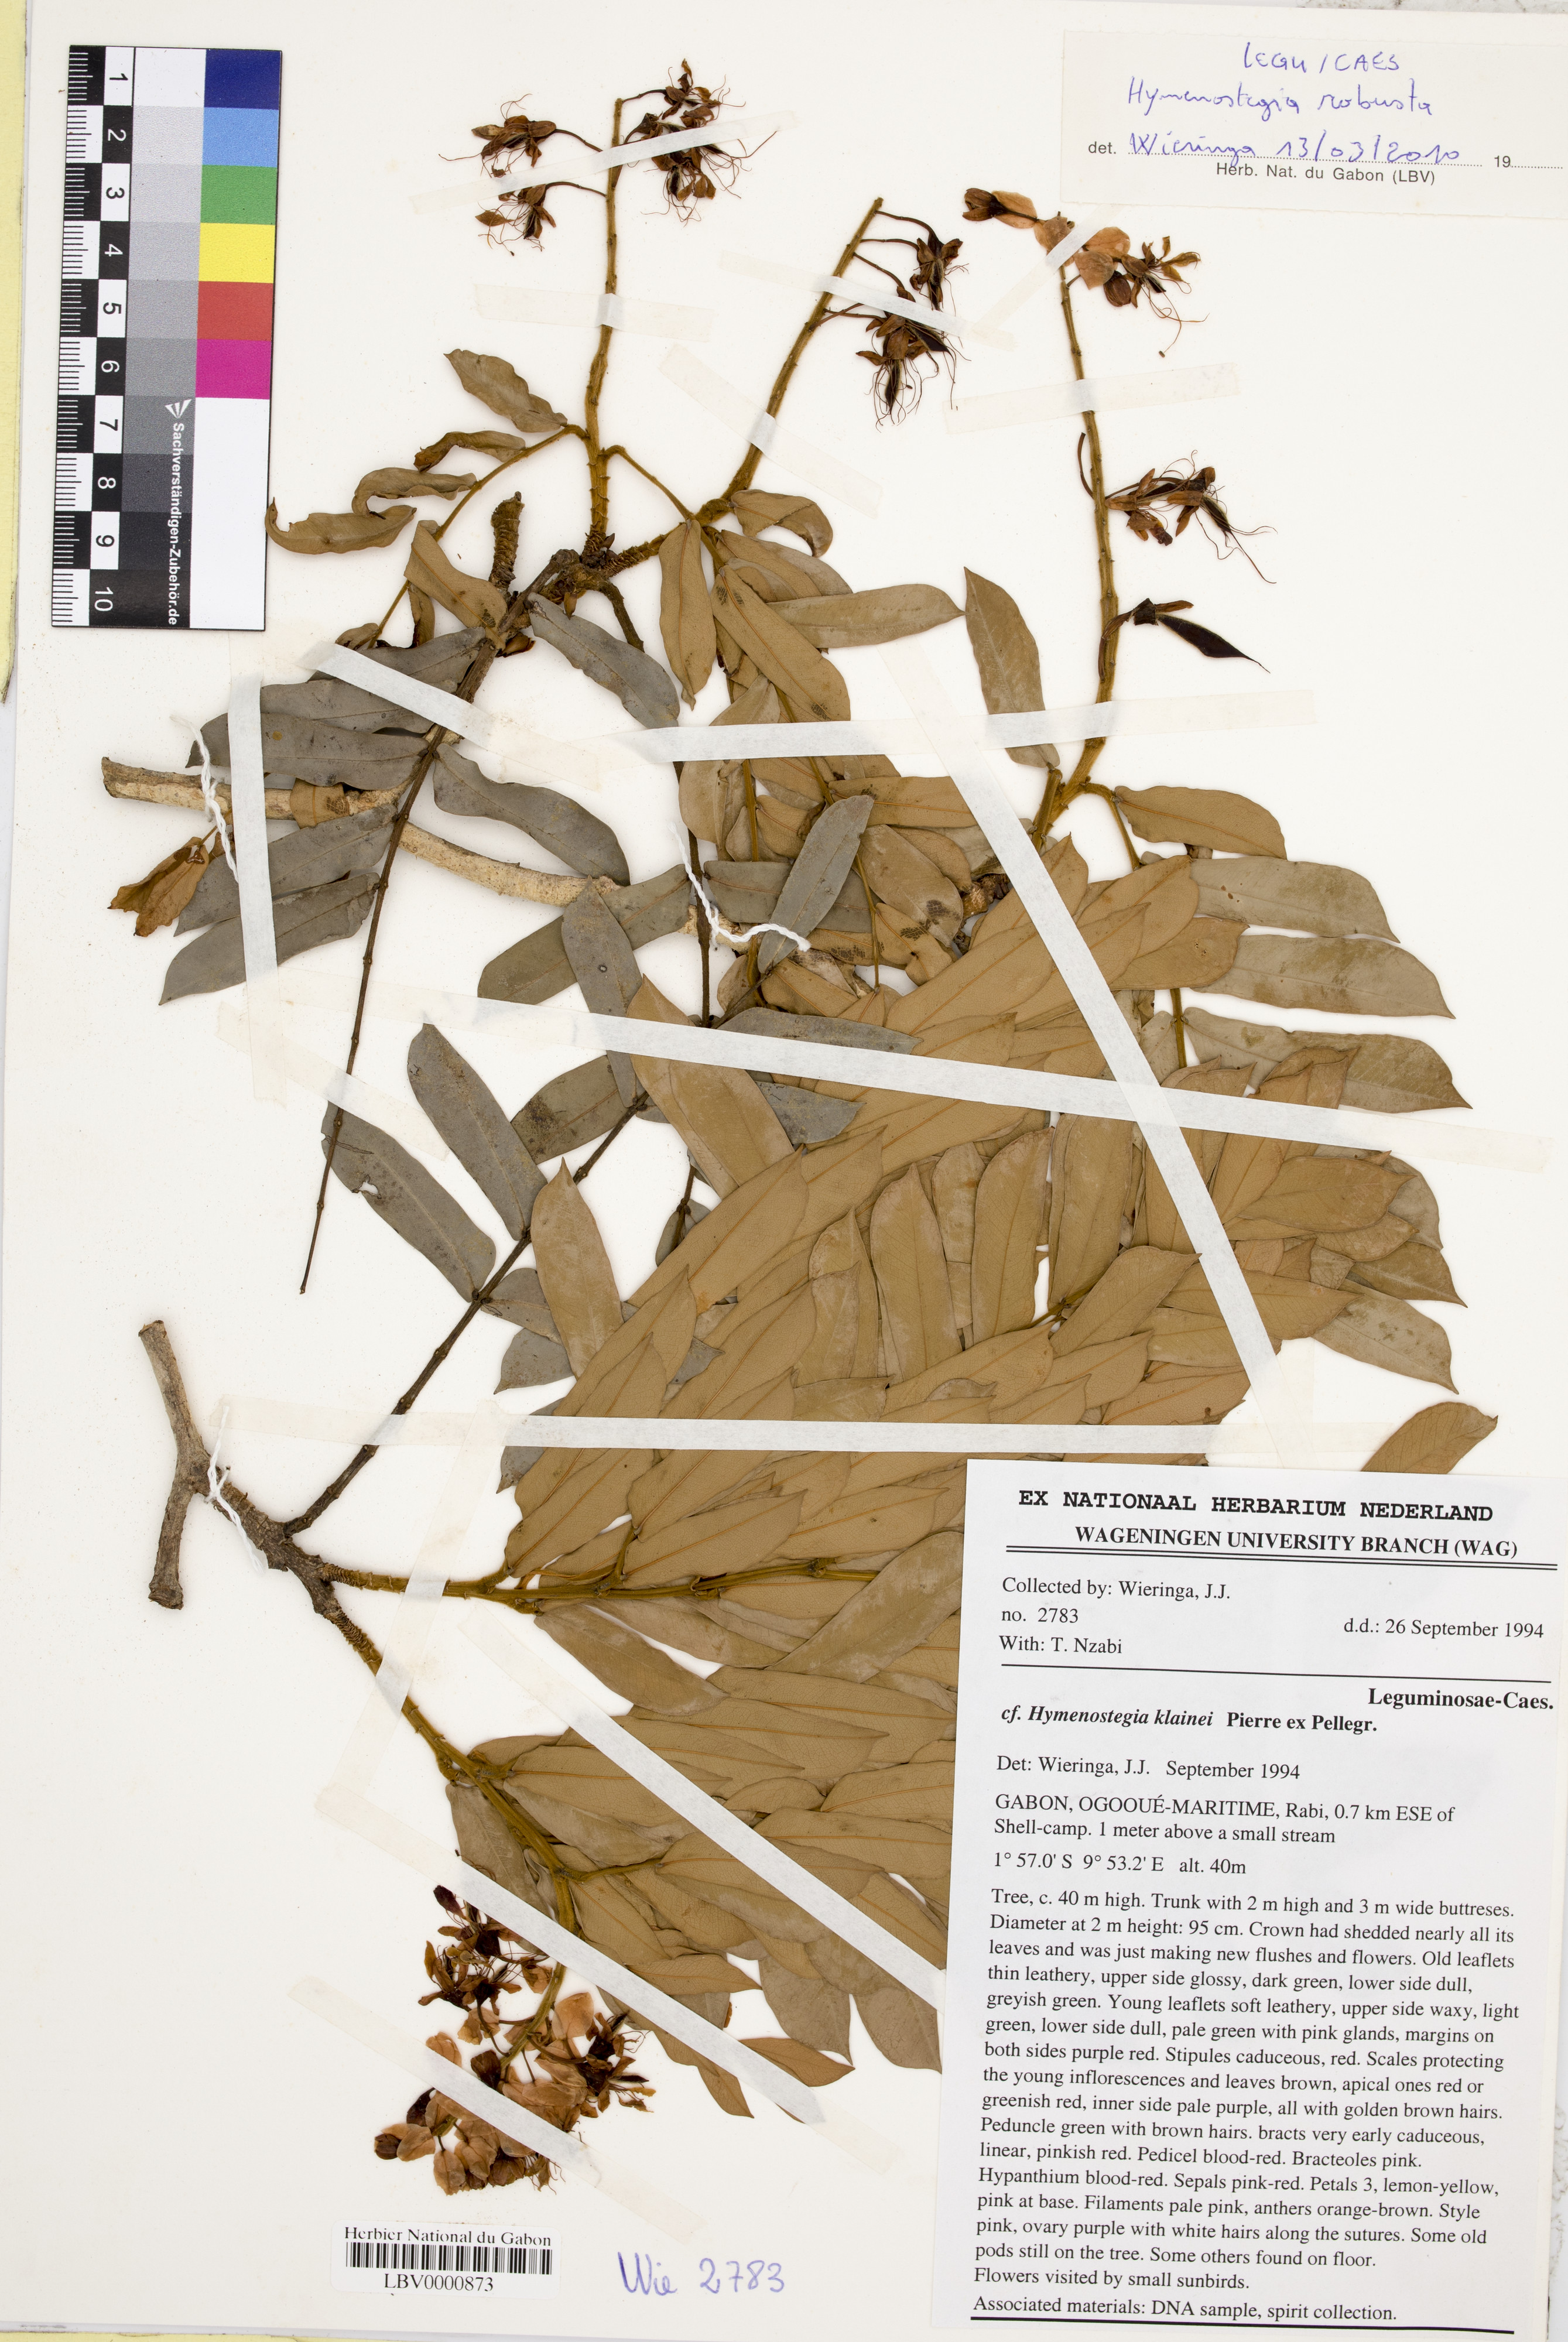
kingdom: Plantae
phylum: Tracheophyta
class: Magnoliopsida
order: Fabales
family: Fabaceae
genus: Hymenostegia
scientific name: Hymenostegia robusta
